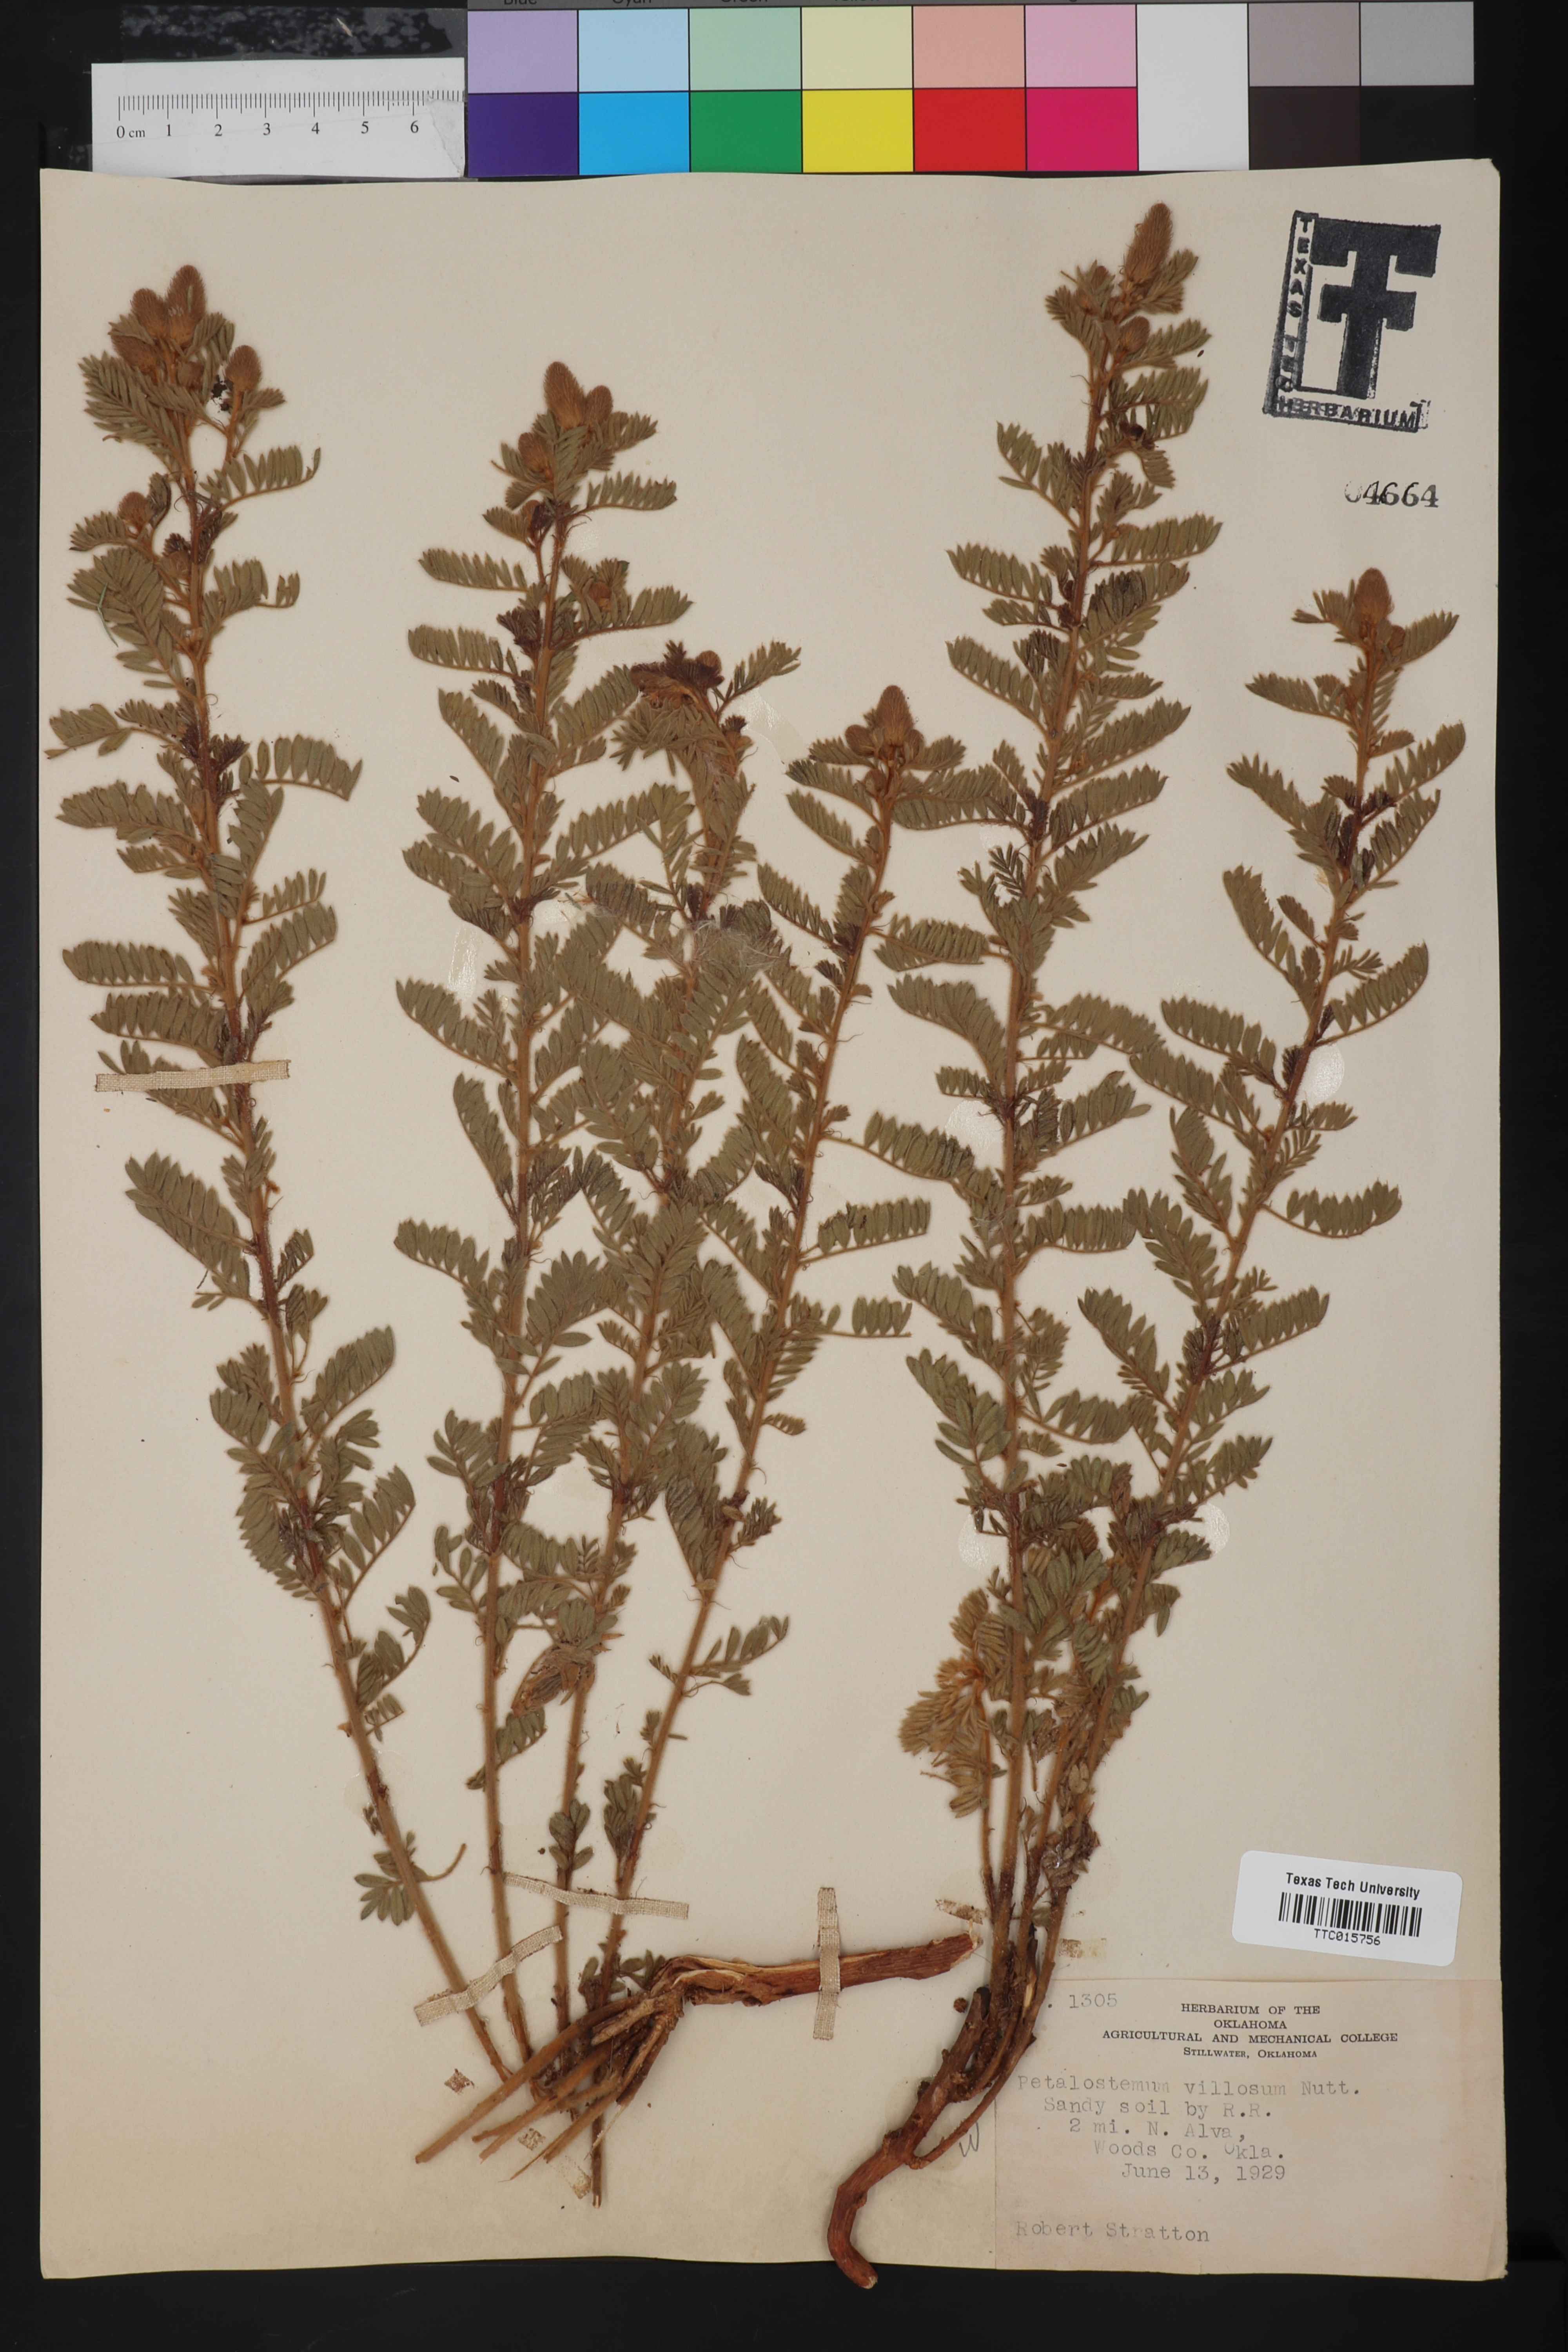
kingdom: Plantae
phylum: Tracheophyta
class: Magnoliopsida
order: Fabales
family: Fabaceae
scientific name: Fabaceae
